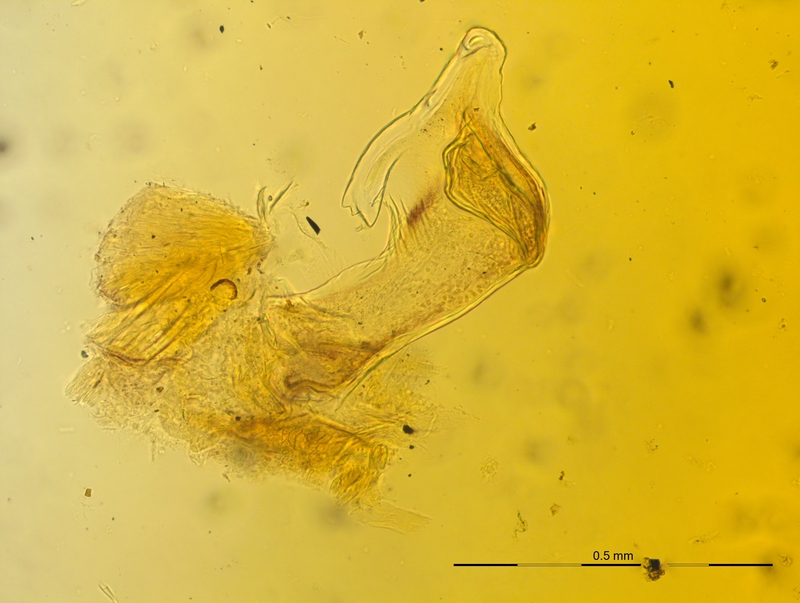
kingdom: Animalia
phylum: Arthropoda
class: Diplopoda
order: Chordeumatida
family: Craspedosomatidae
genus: Craspedosoma
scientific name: Craspedosoma rawlinsii
